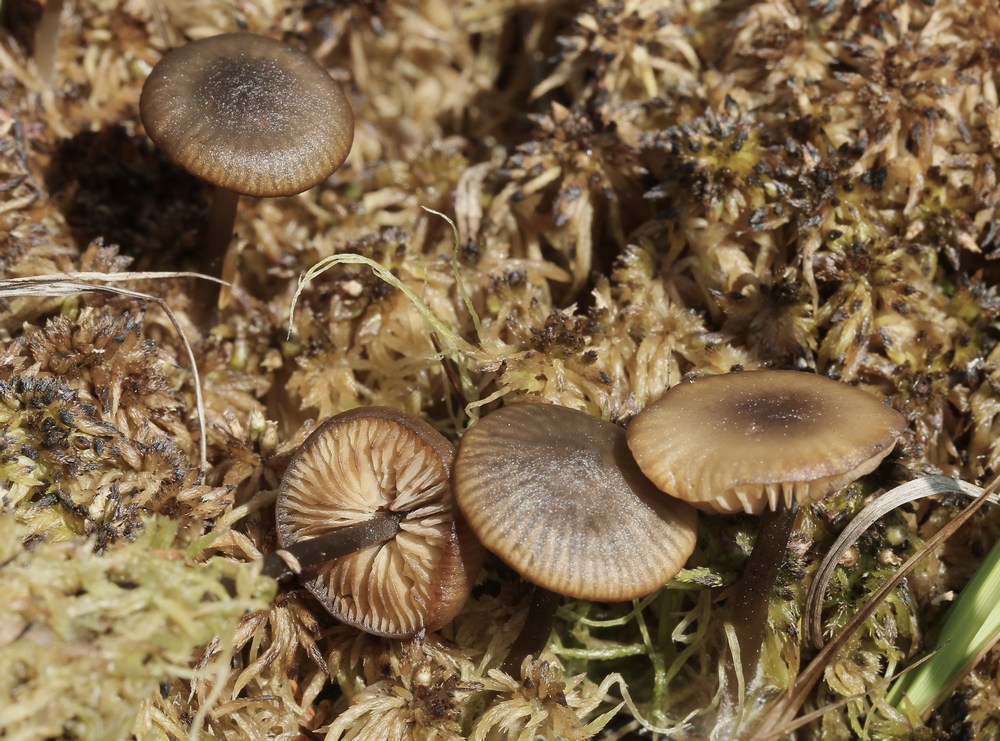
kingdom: Fungi
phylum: Basidiomycota
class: Agaricomycetes
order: Agaricales
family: Lyophyllaceae
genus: Sphagnurus
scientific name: Sphagnurus paluster
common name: tørvemos-gråblad
